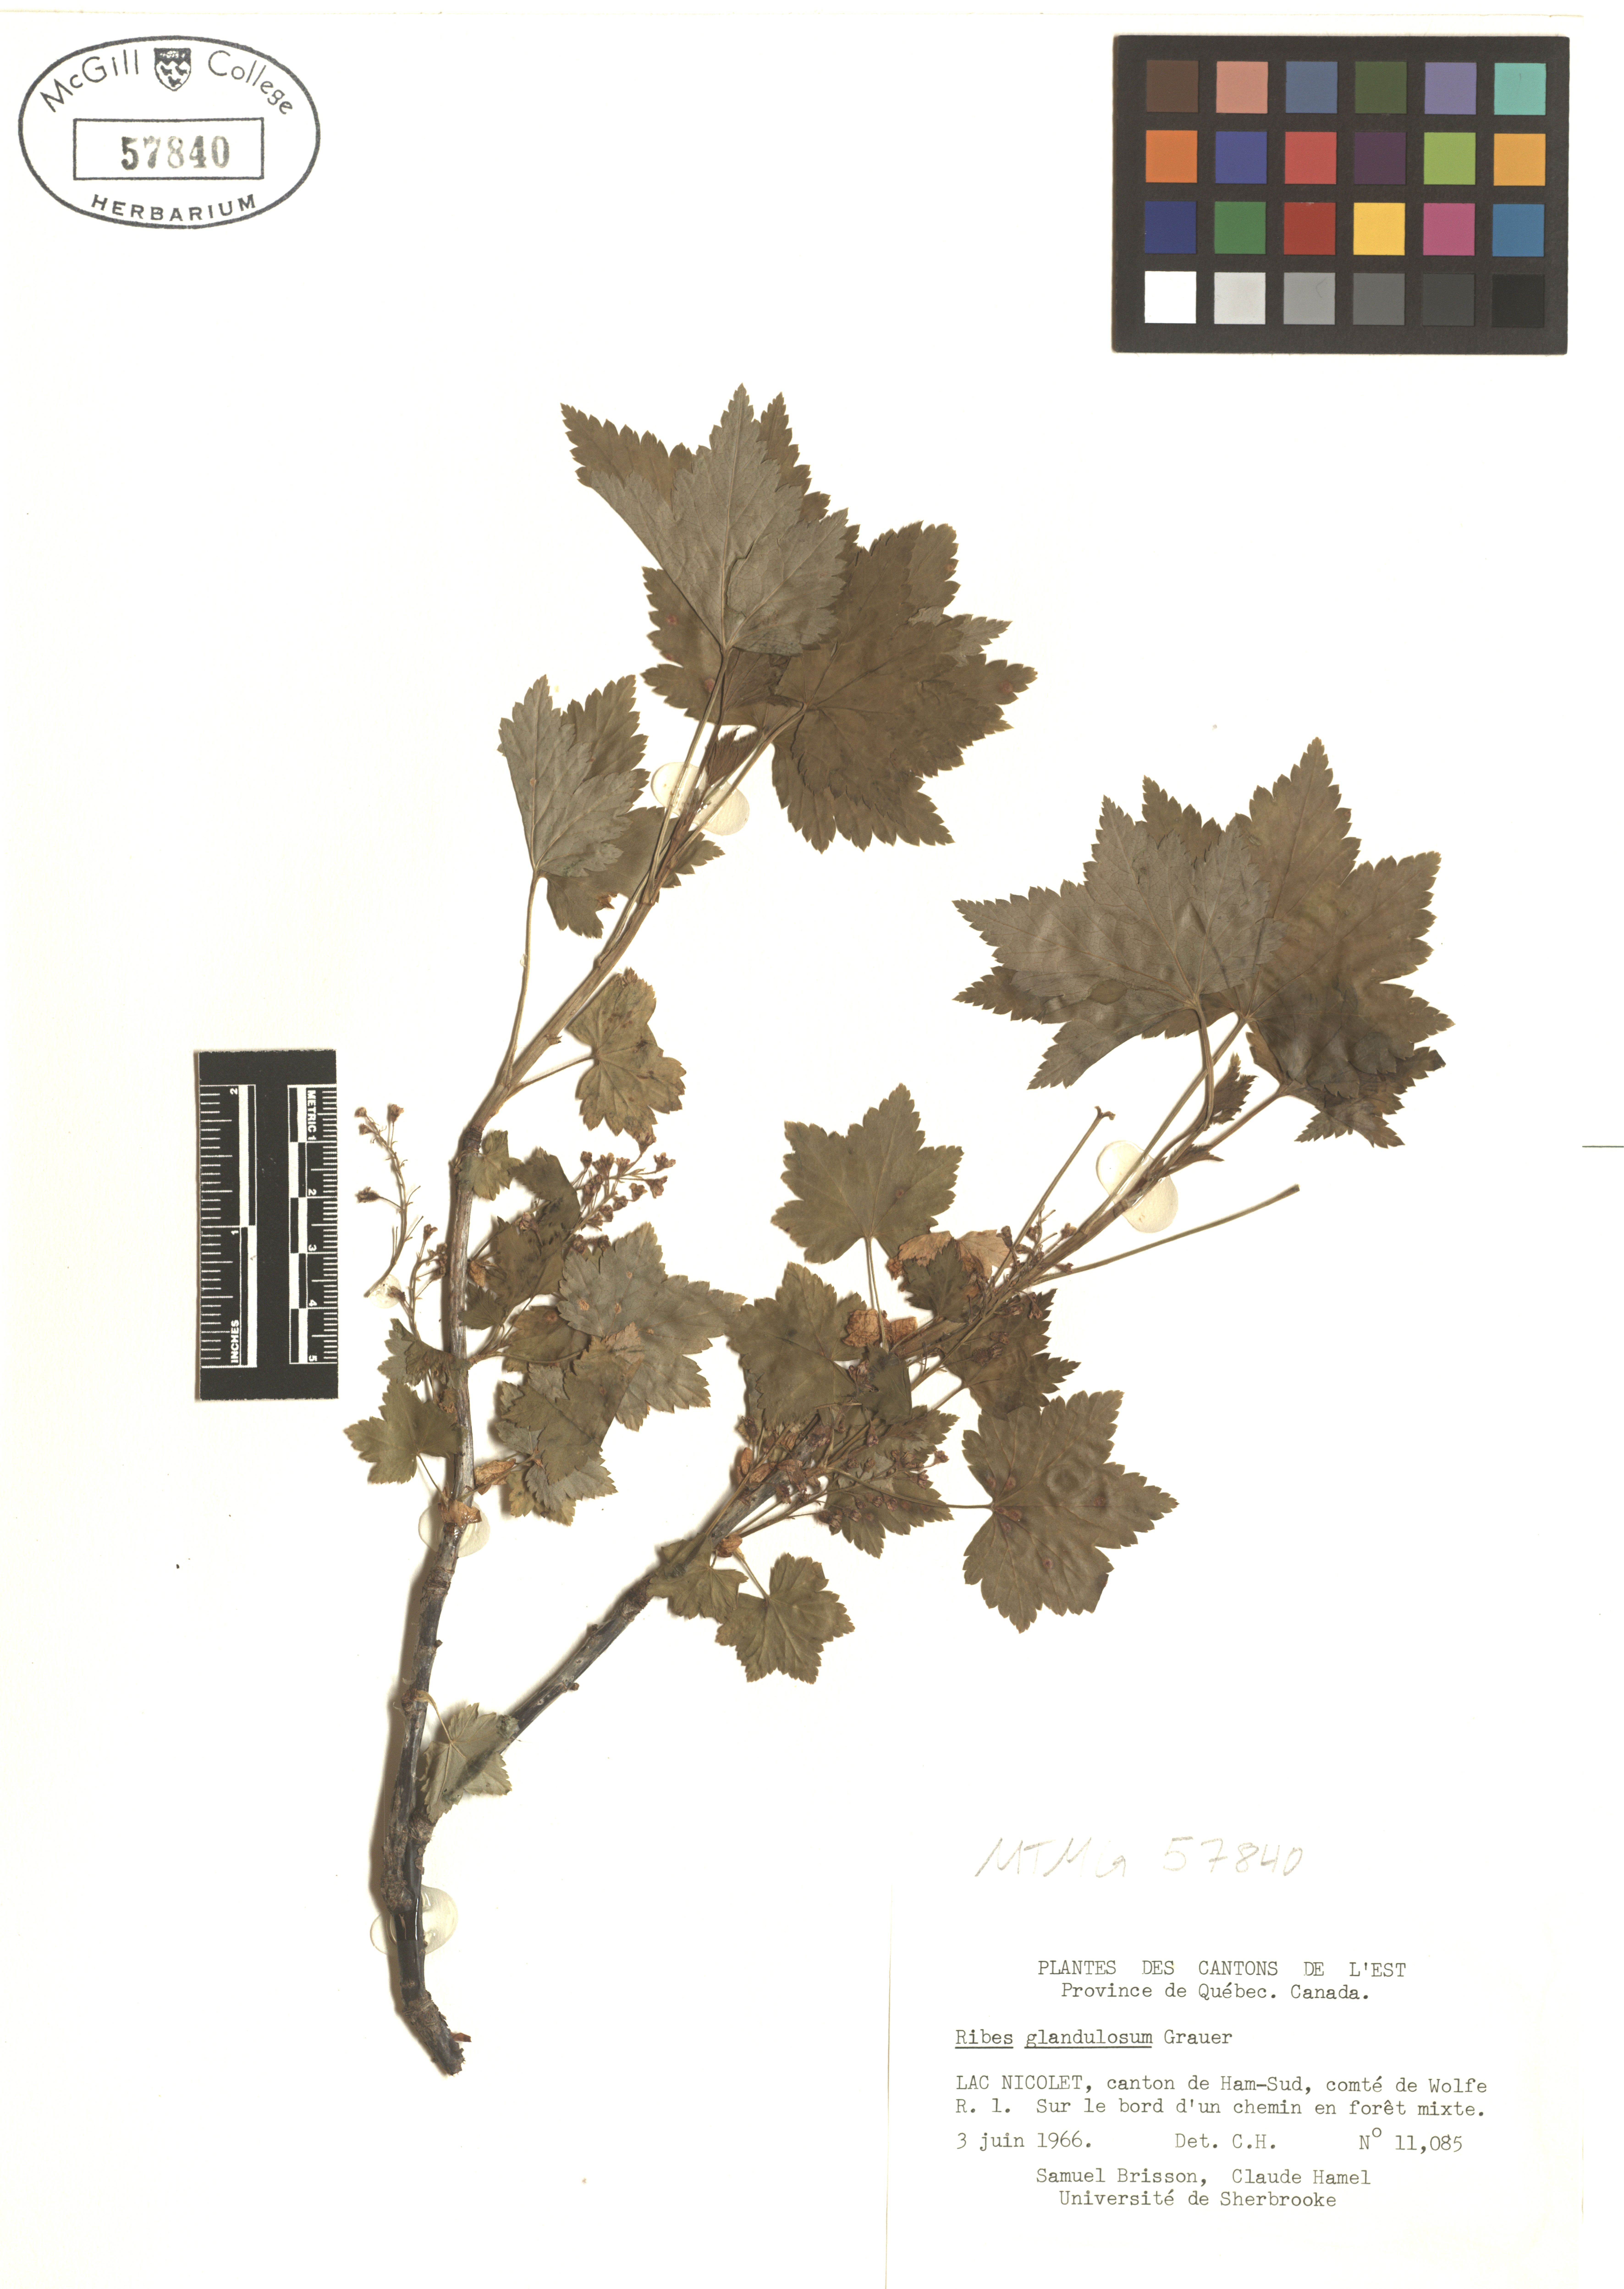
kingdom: Plantae
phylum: Tracheophyta
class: Magnoliopsida
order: Saxifragales
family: Grossulariaceae
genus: Ribes
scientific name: Ribes glandulosum
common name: Skunk currant
